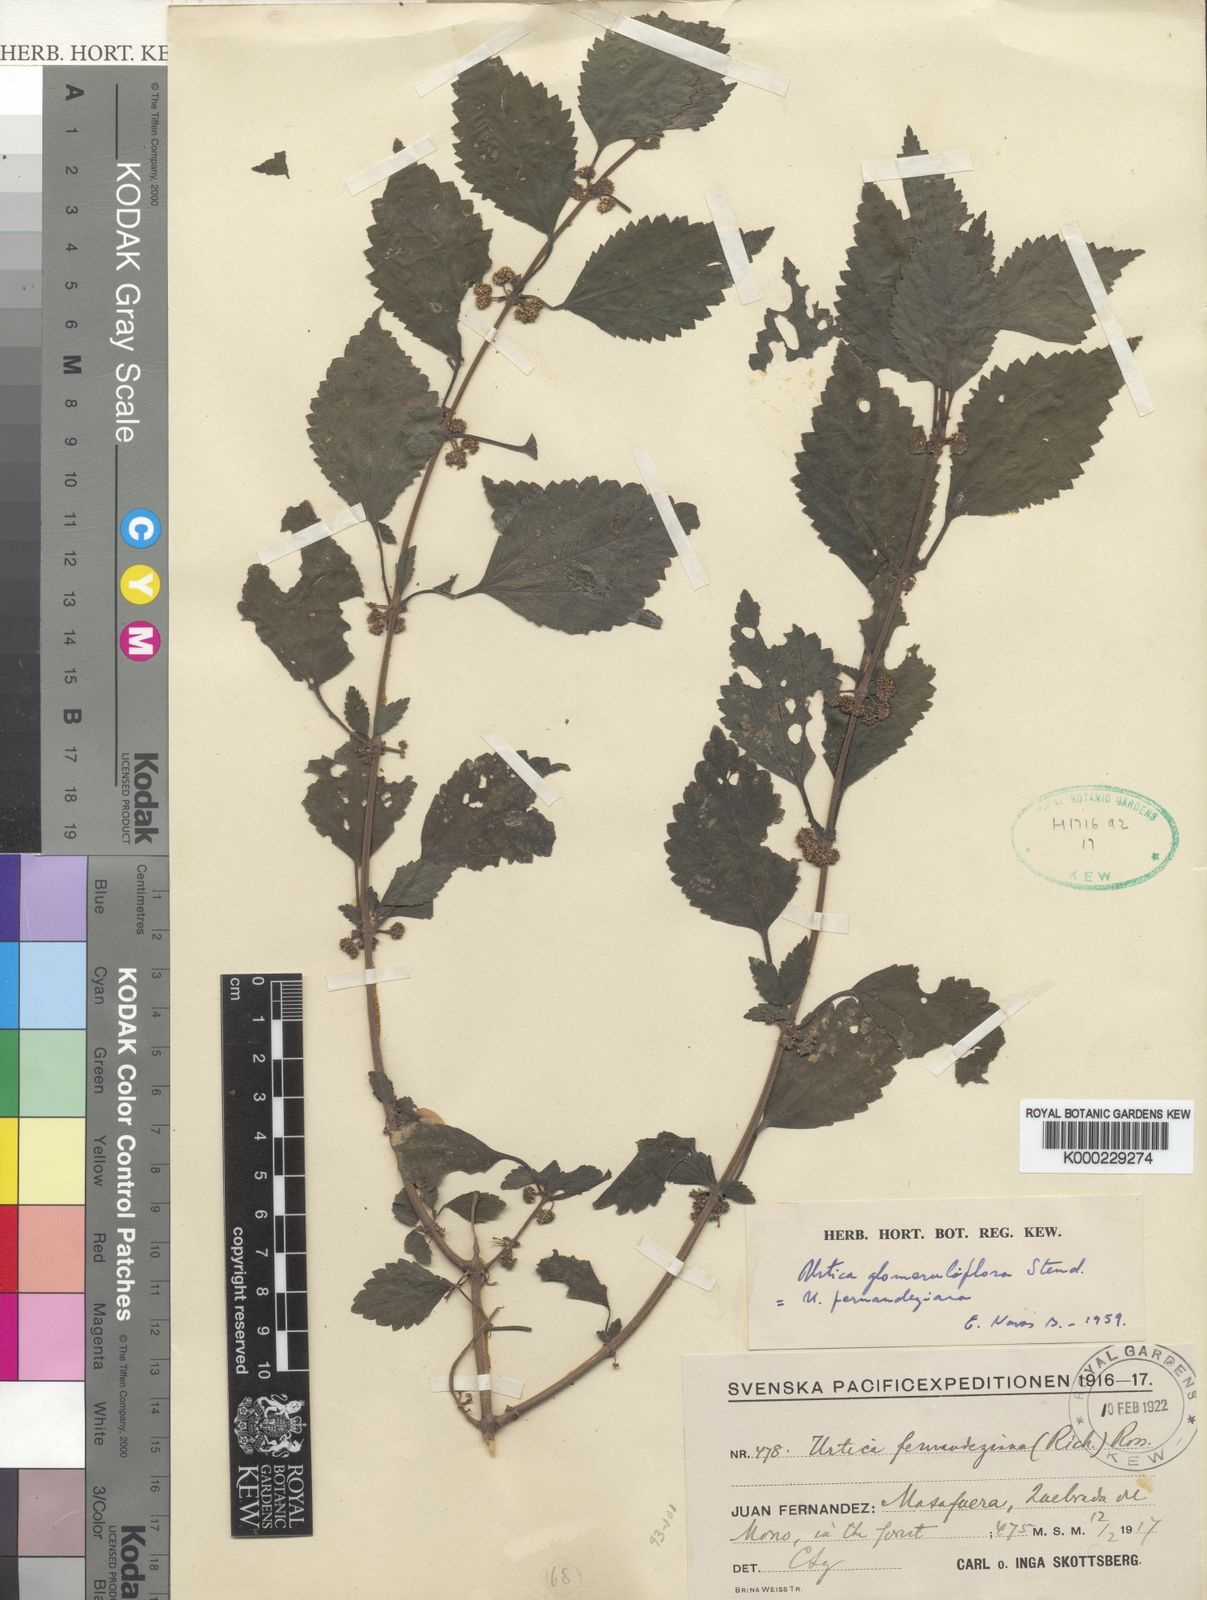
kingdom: Plantae
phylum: Tracheophyta
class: Magnoliopsida
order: Rosales
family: Urticaceae
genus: Urtica
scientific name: Urtica glomeruliflora
